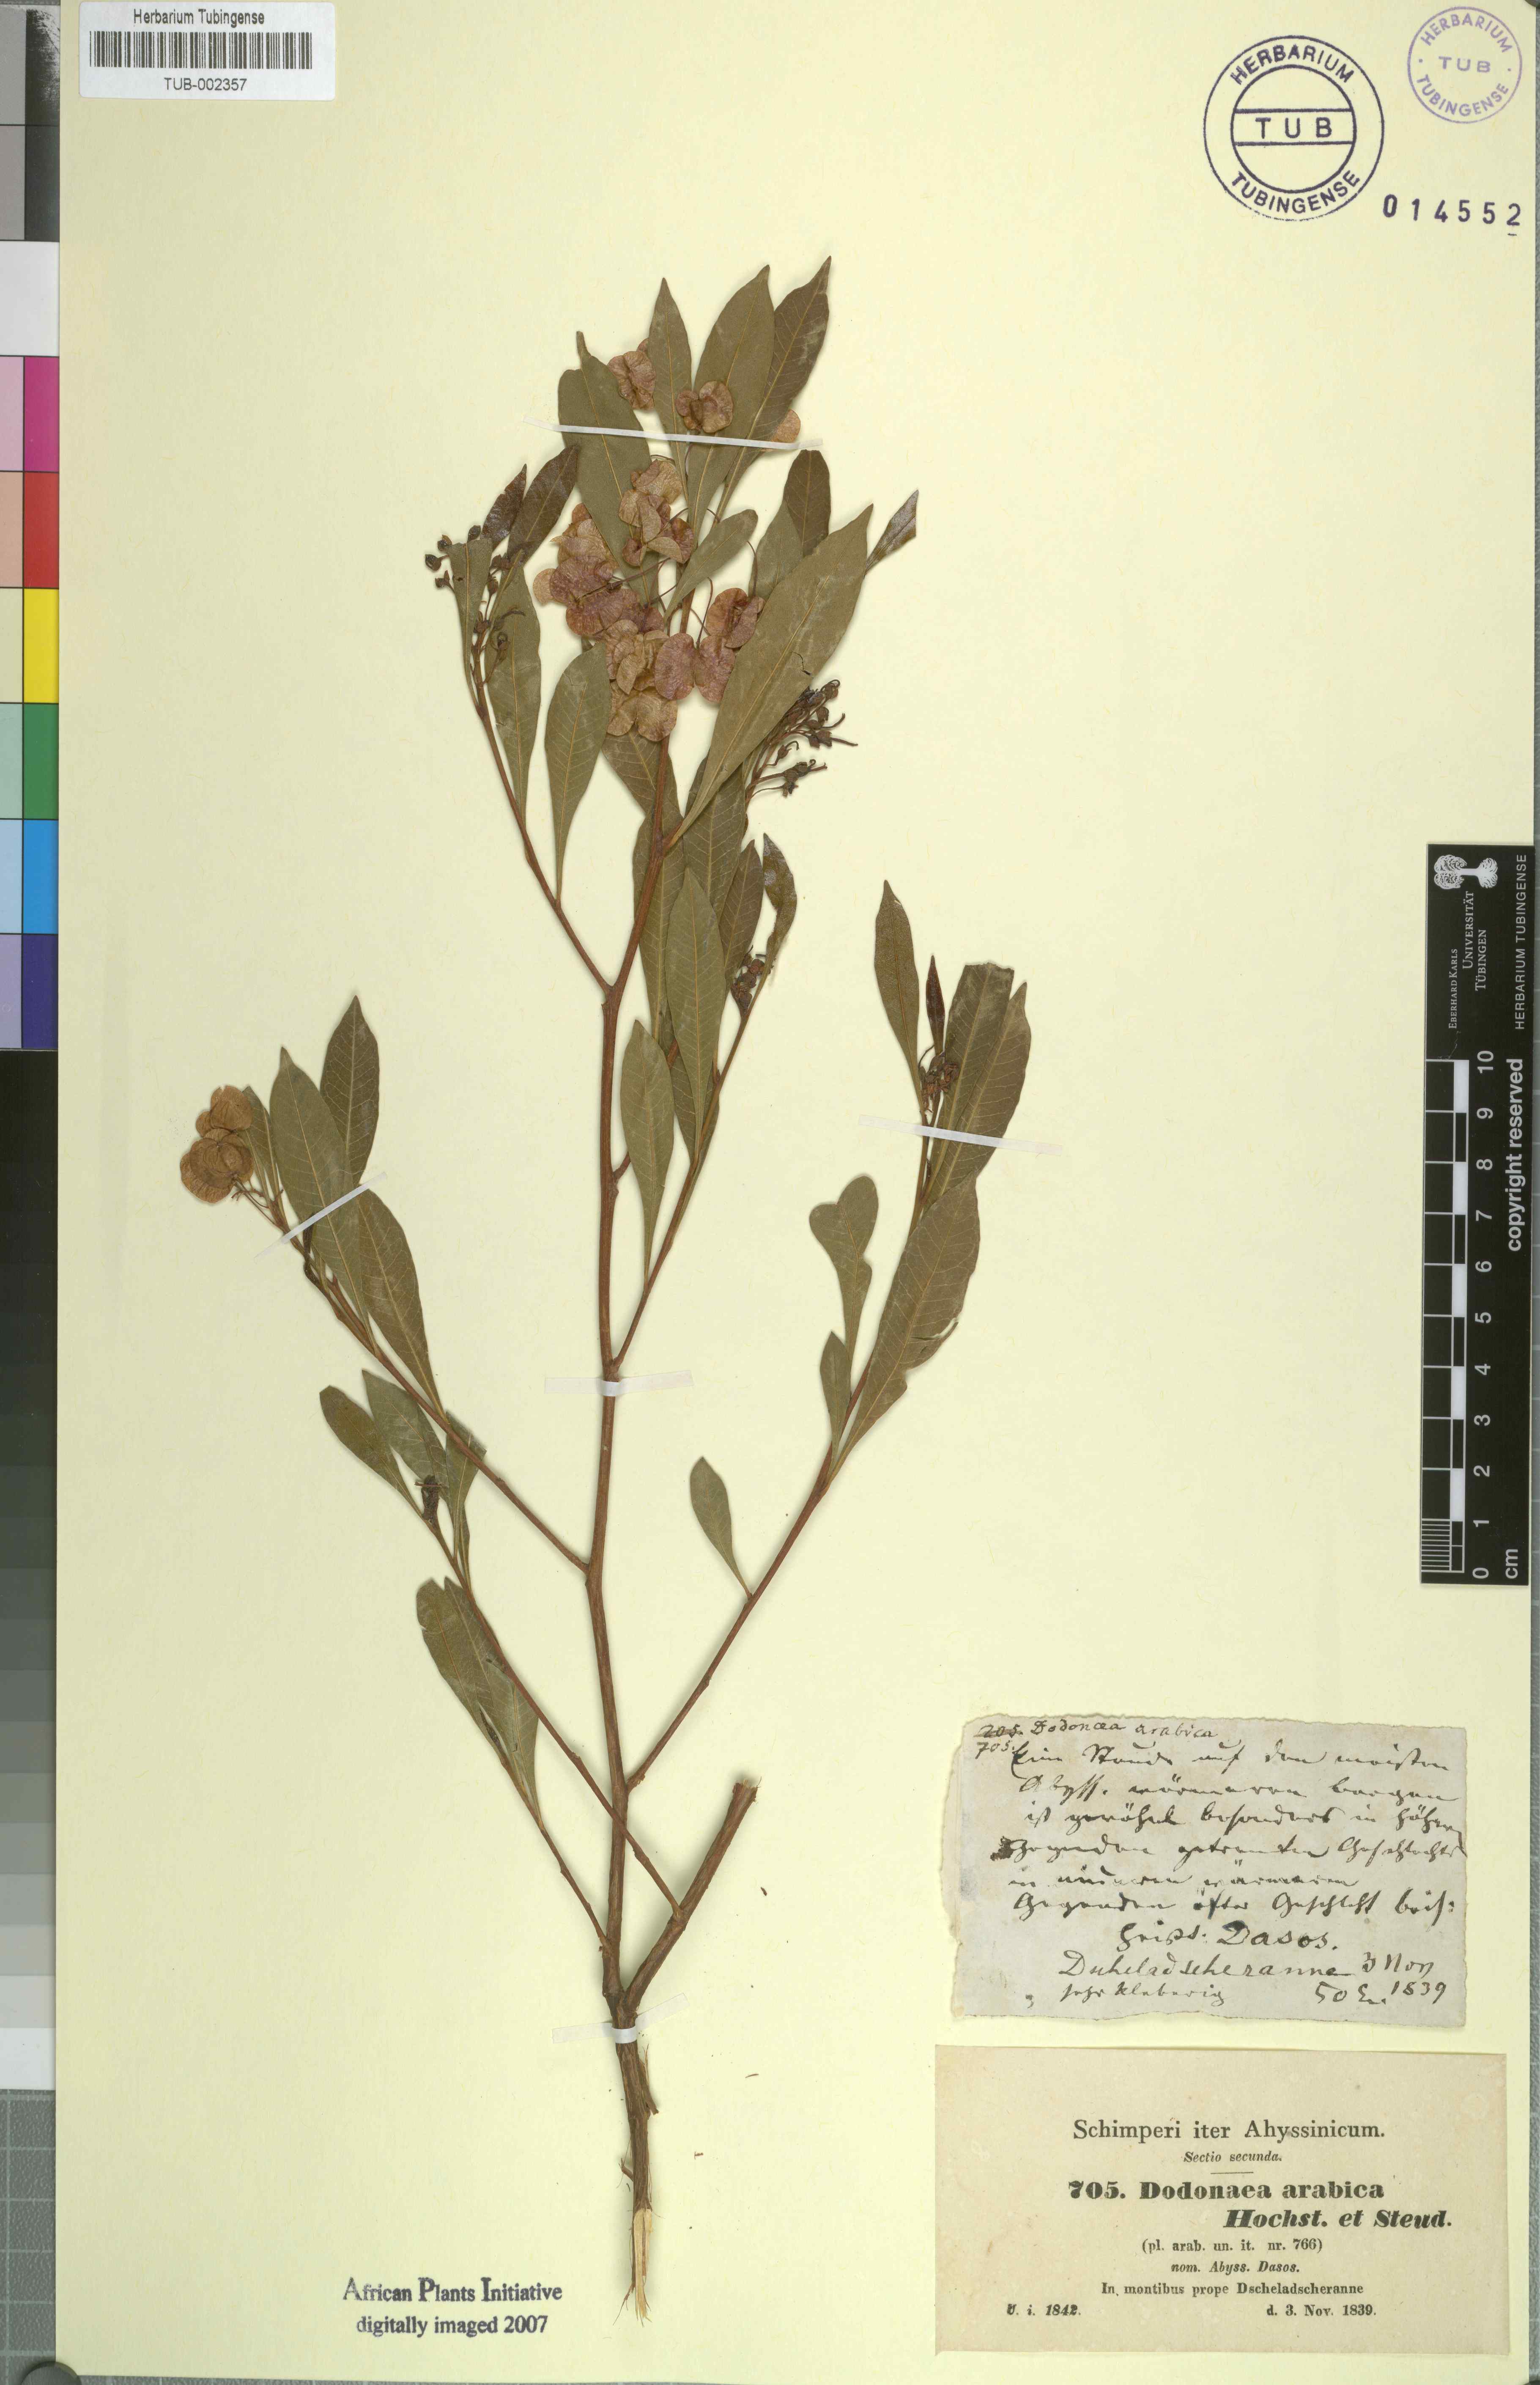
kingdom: Plantae
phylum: Tracheophyta
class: Magnoliopsida
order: Sapindales
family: Sapindaceae
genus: Dodonaea
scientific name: Dodonaea viscosa
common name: Hopbush
